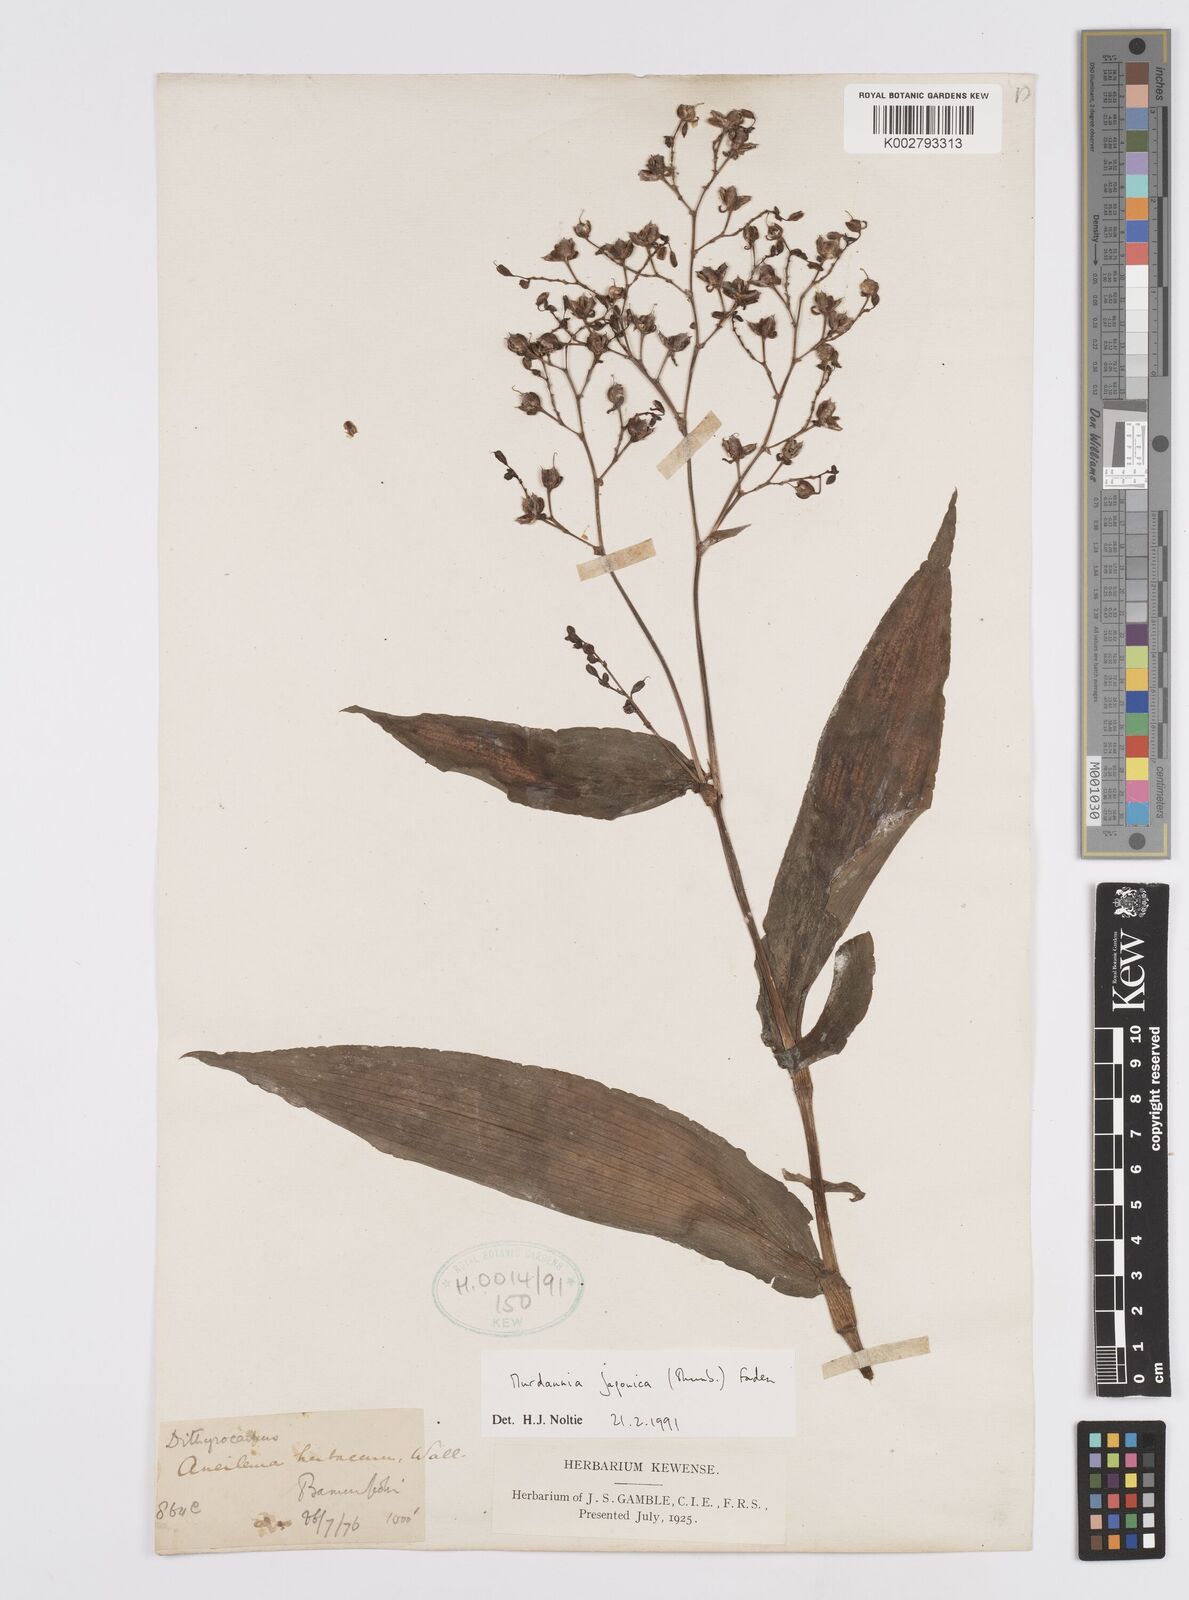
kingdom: Plantae
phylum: Tracheophyta
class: Liliopsida
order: Commelinales
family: Commelinaceae
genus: Murdannia
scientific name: Murdannia japonica
